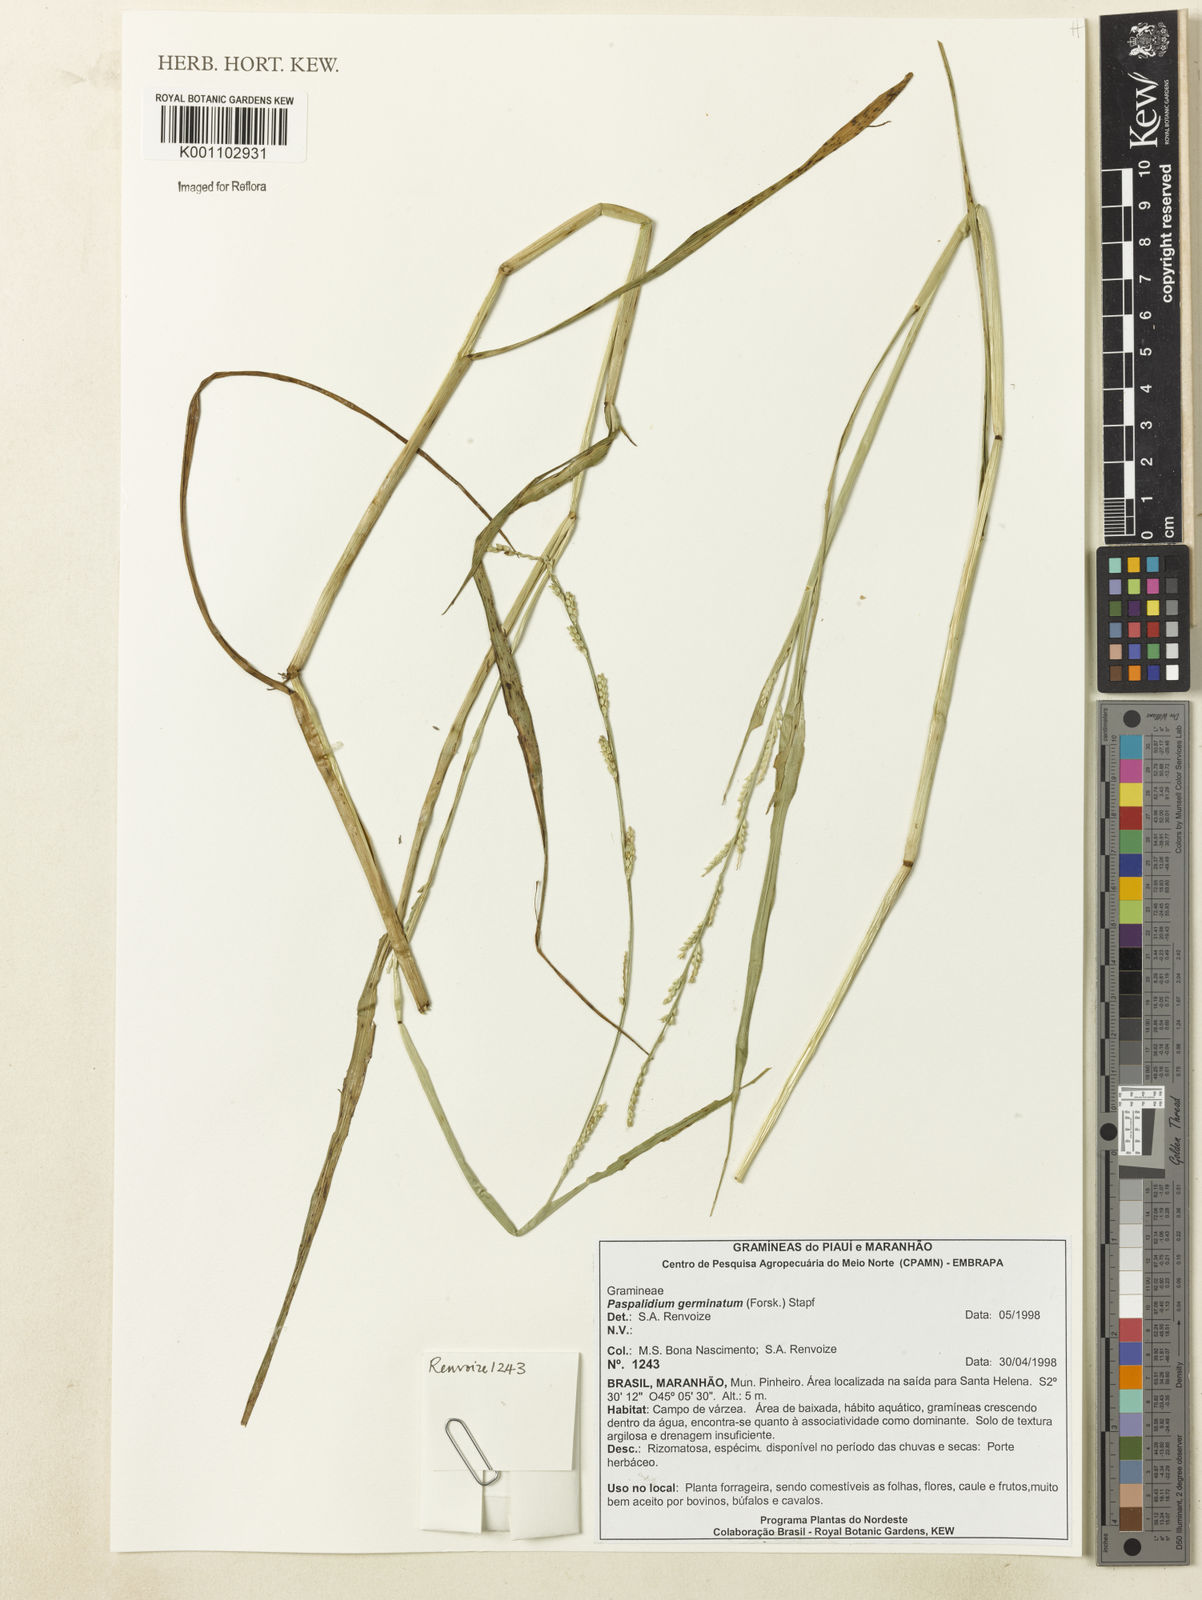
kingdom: Plantae
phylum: Tracheophyta
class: Liliopsida
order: Poales
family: Poaceae
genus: Setaria
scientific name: Setaria geminata
